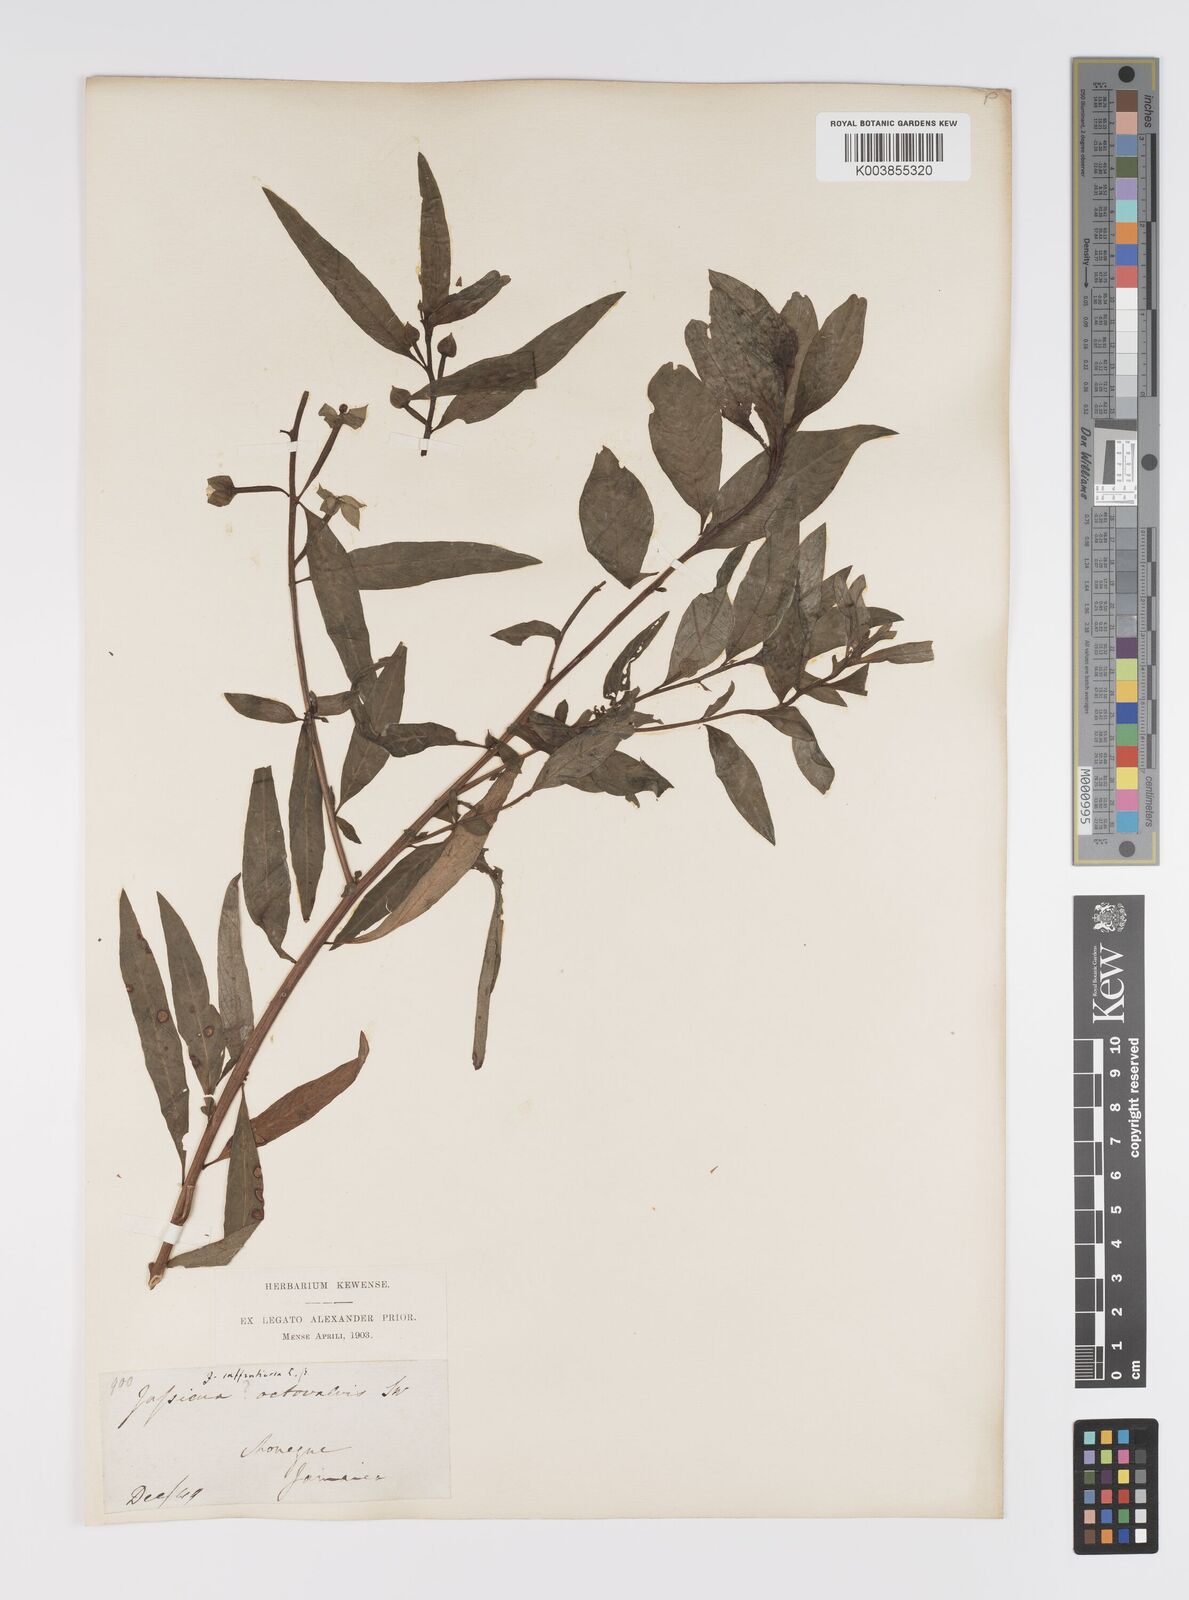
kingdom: Plantae
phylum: Tracheophyta
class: Magnoliopsida
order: Myrtales
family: Onagraceae
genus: Ludwigia
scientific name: Ludwigia octovalvis
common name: Water-primrose
